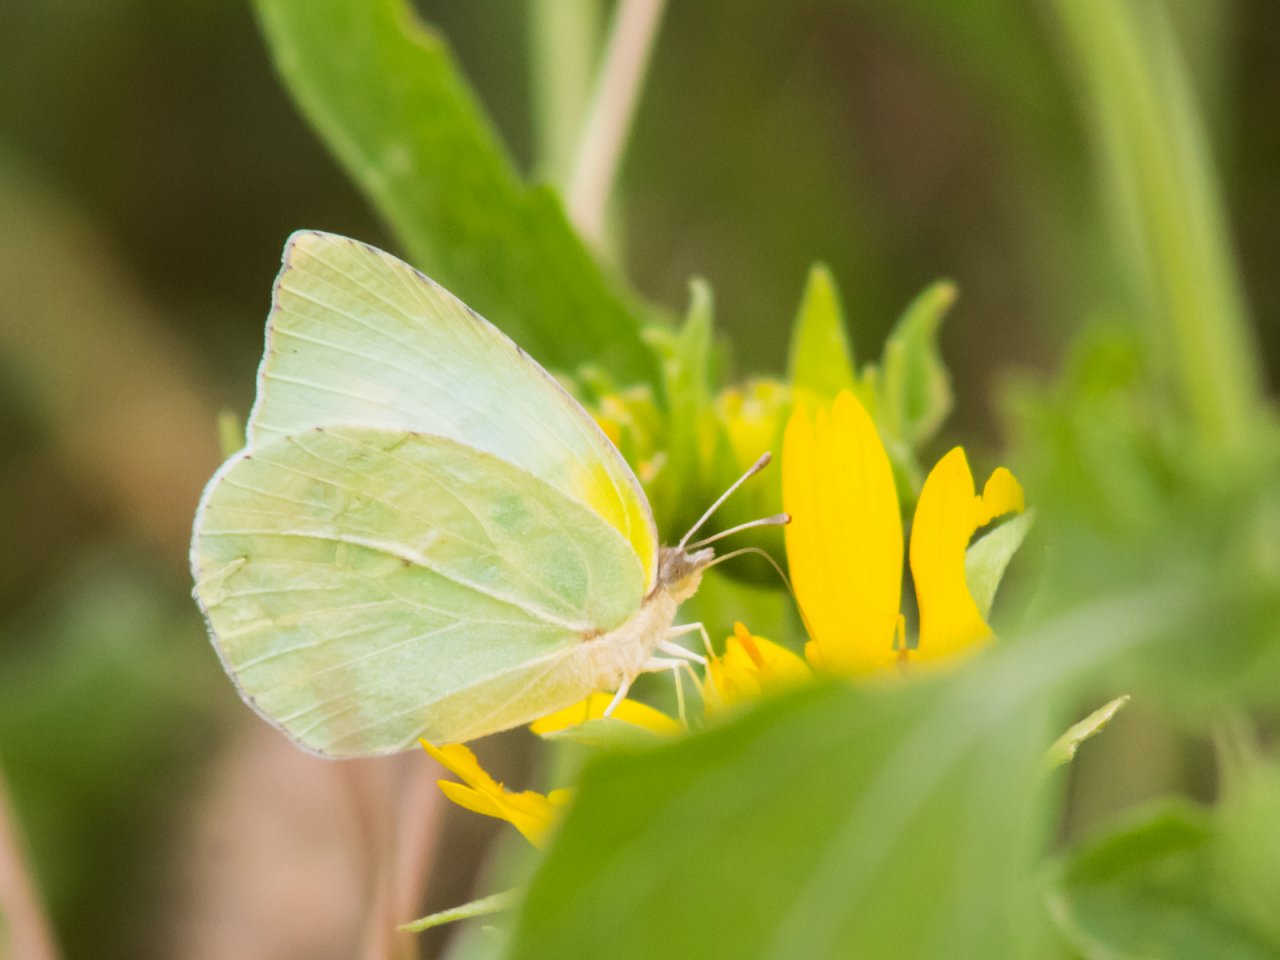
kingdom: Animalia
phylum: Arthropoda
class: Insecta
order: Lepidoptera
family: Pieridae
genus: Kricogonia
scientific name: Kricogonia lyside
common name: Lyside Sulphur
